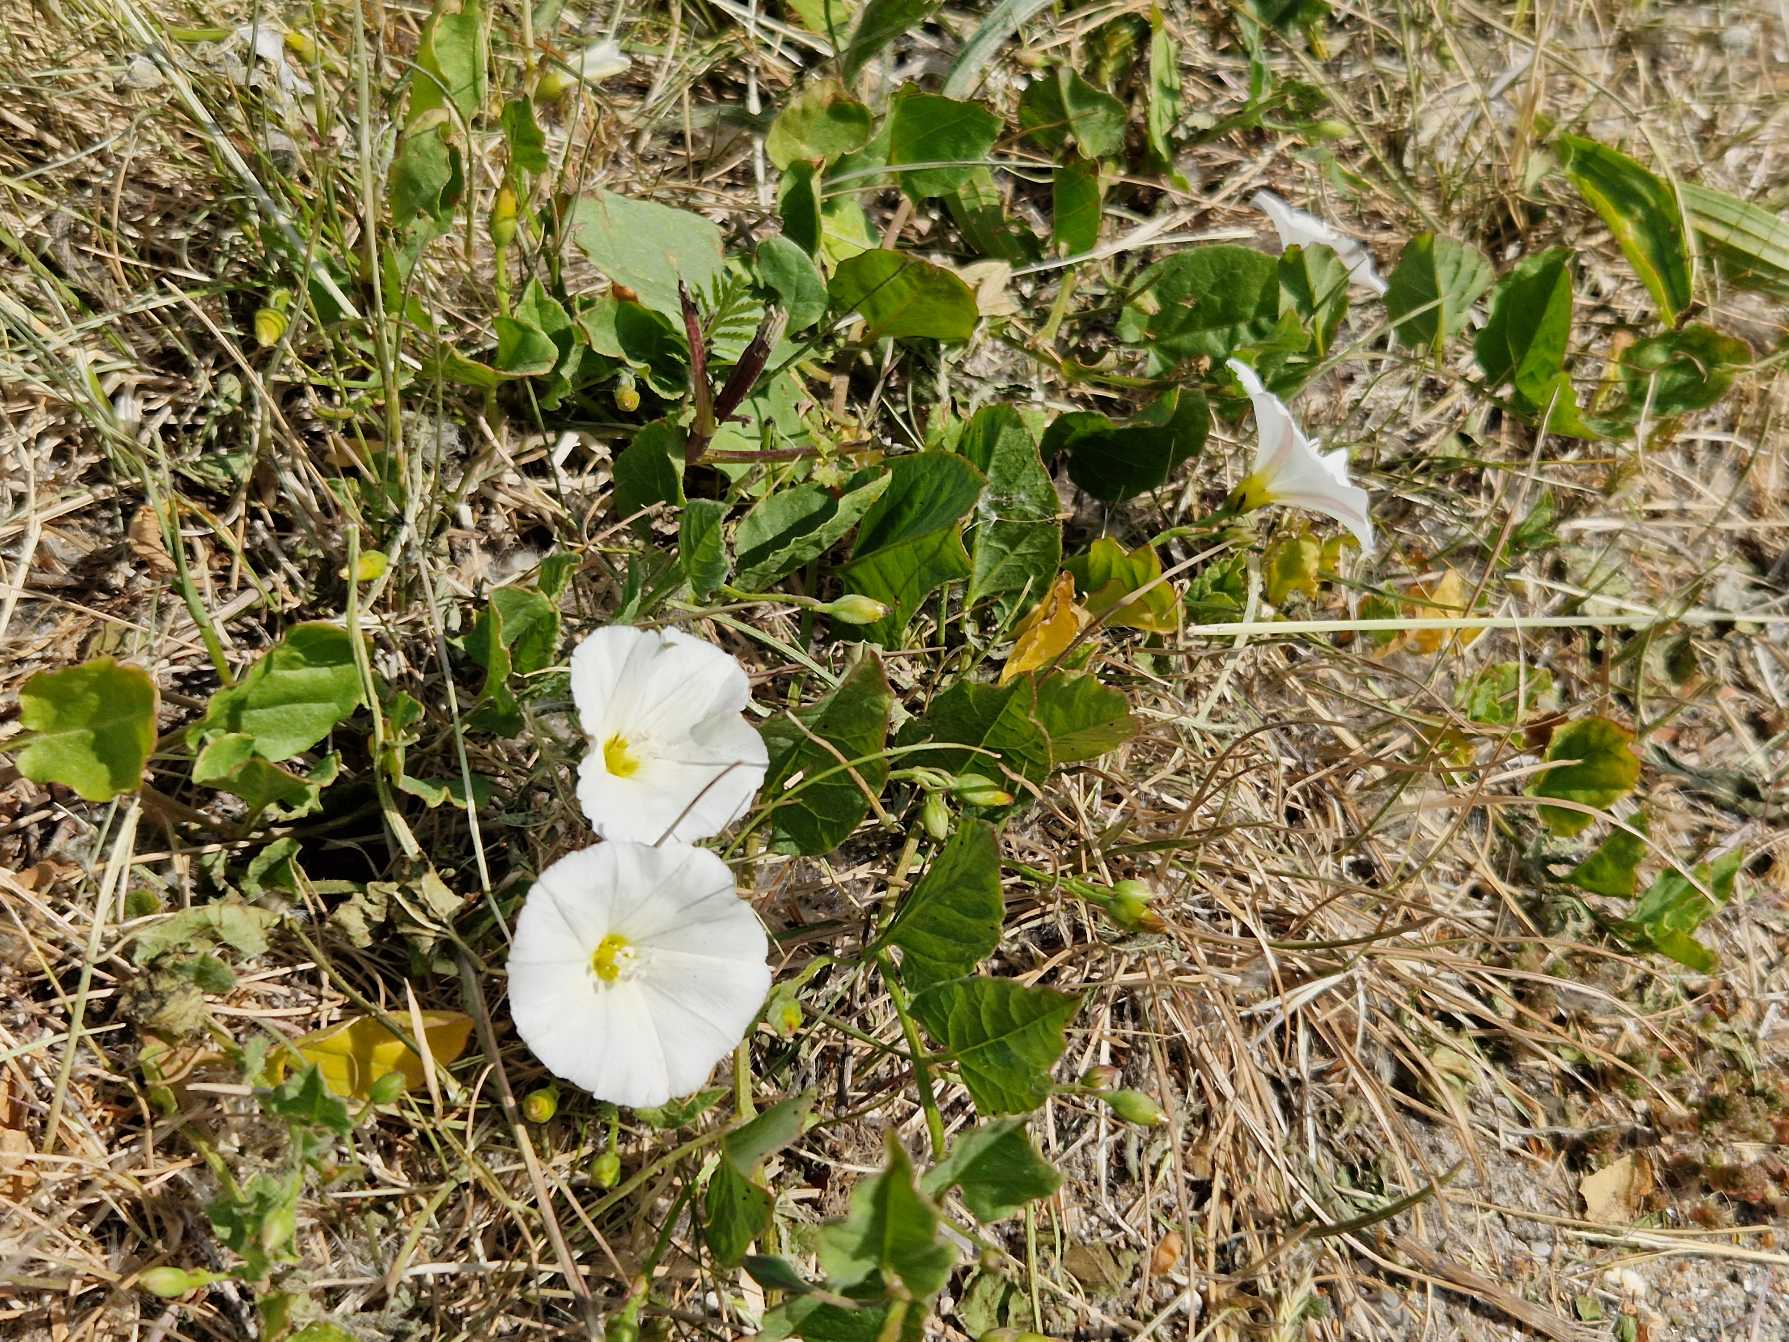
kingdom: Plantae
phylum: Tracheophyta
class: Magnoliopsida
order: Solanales
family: Convolvulaceae
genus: Convolvulus
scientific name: Convolvulus arvensis
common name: Ager-snerle
